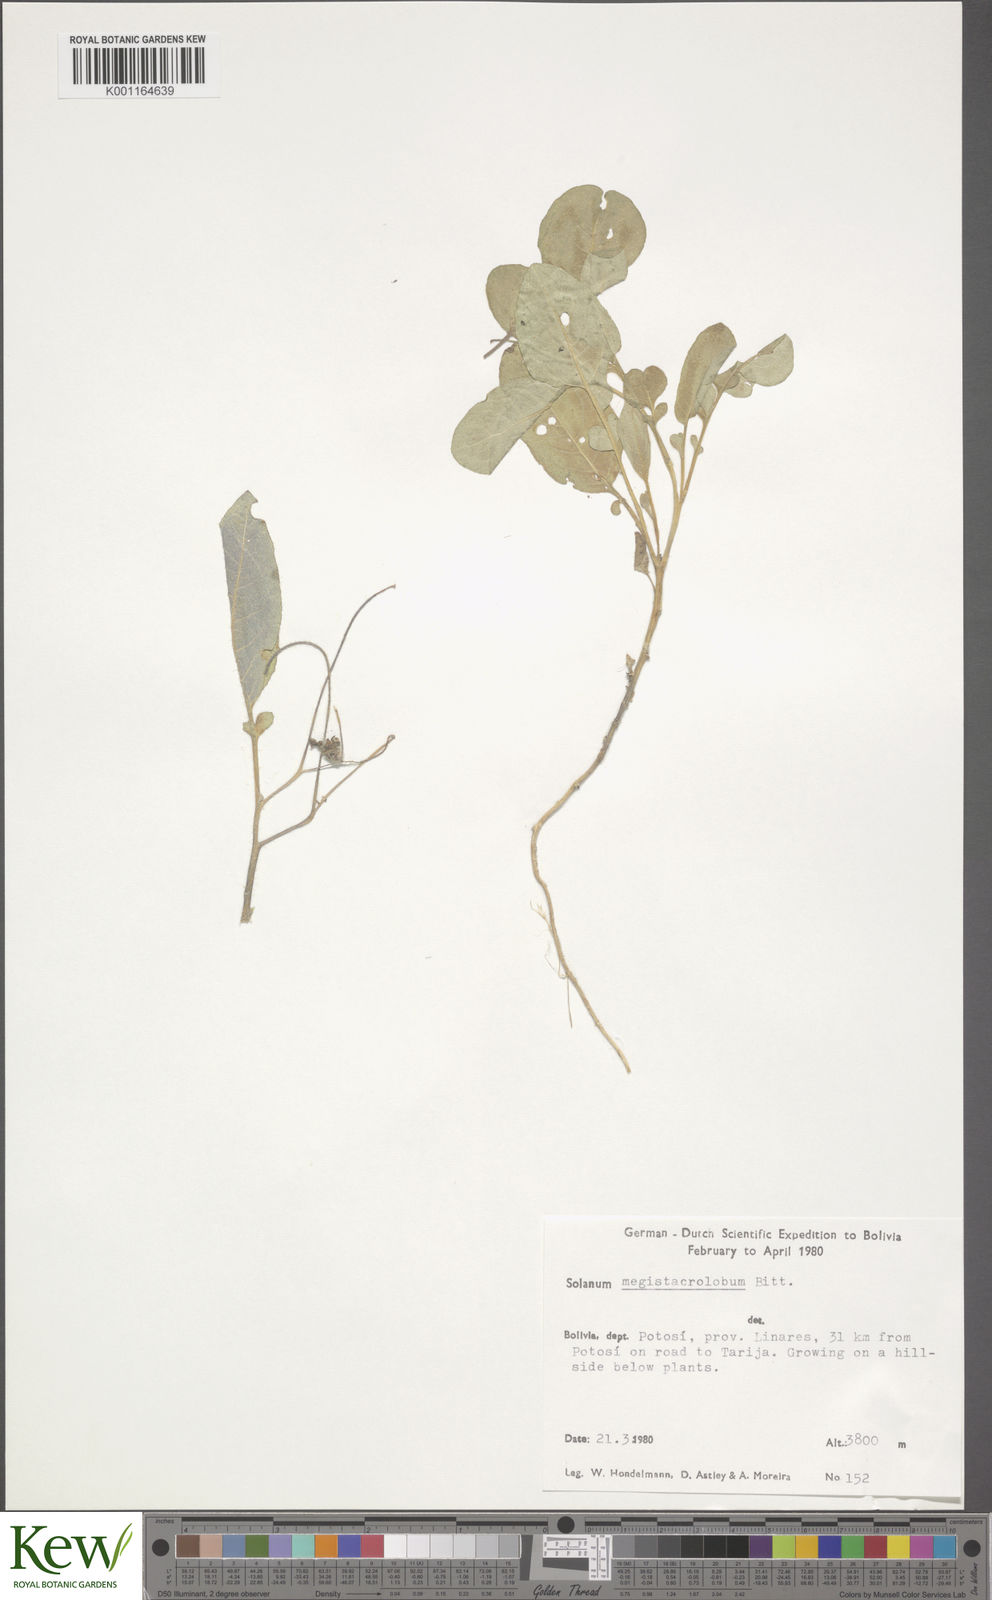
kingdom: Plantae
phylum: Tracheophyta
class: Magnoliopsida
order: Solanales
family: Solanaceae
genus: Solanum
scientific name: Solanum boliviense
